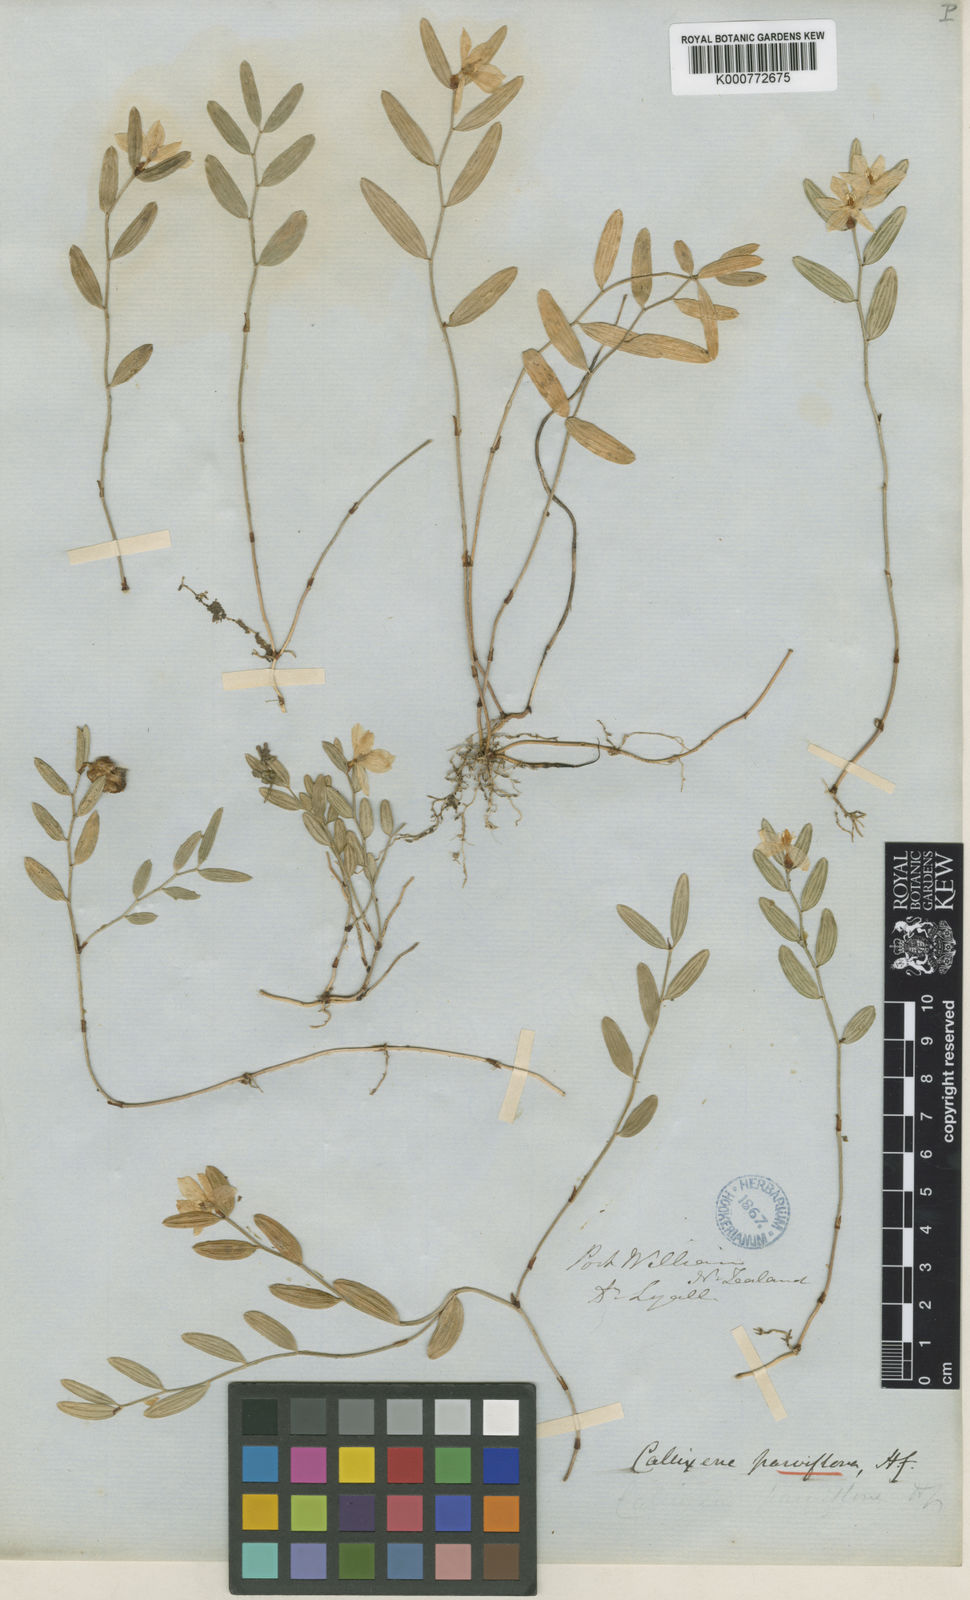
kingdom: Plantae
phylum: Tracheophyta
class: Liliopsida
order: Liliales
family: Alstroemeriaceae
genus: Luzuriaga
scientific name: Luzuriaga parviflora
